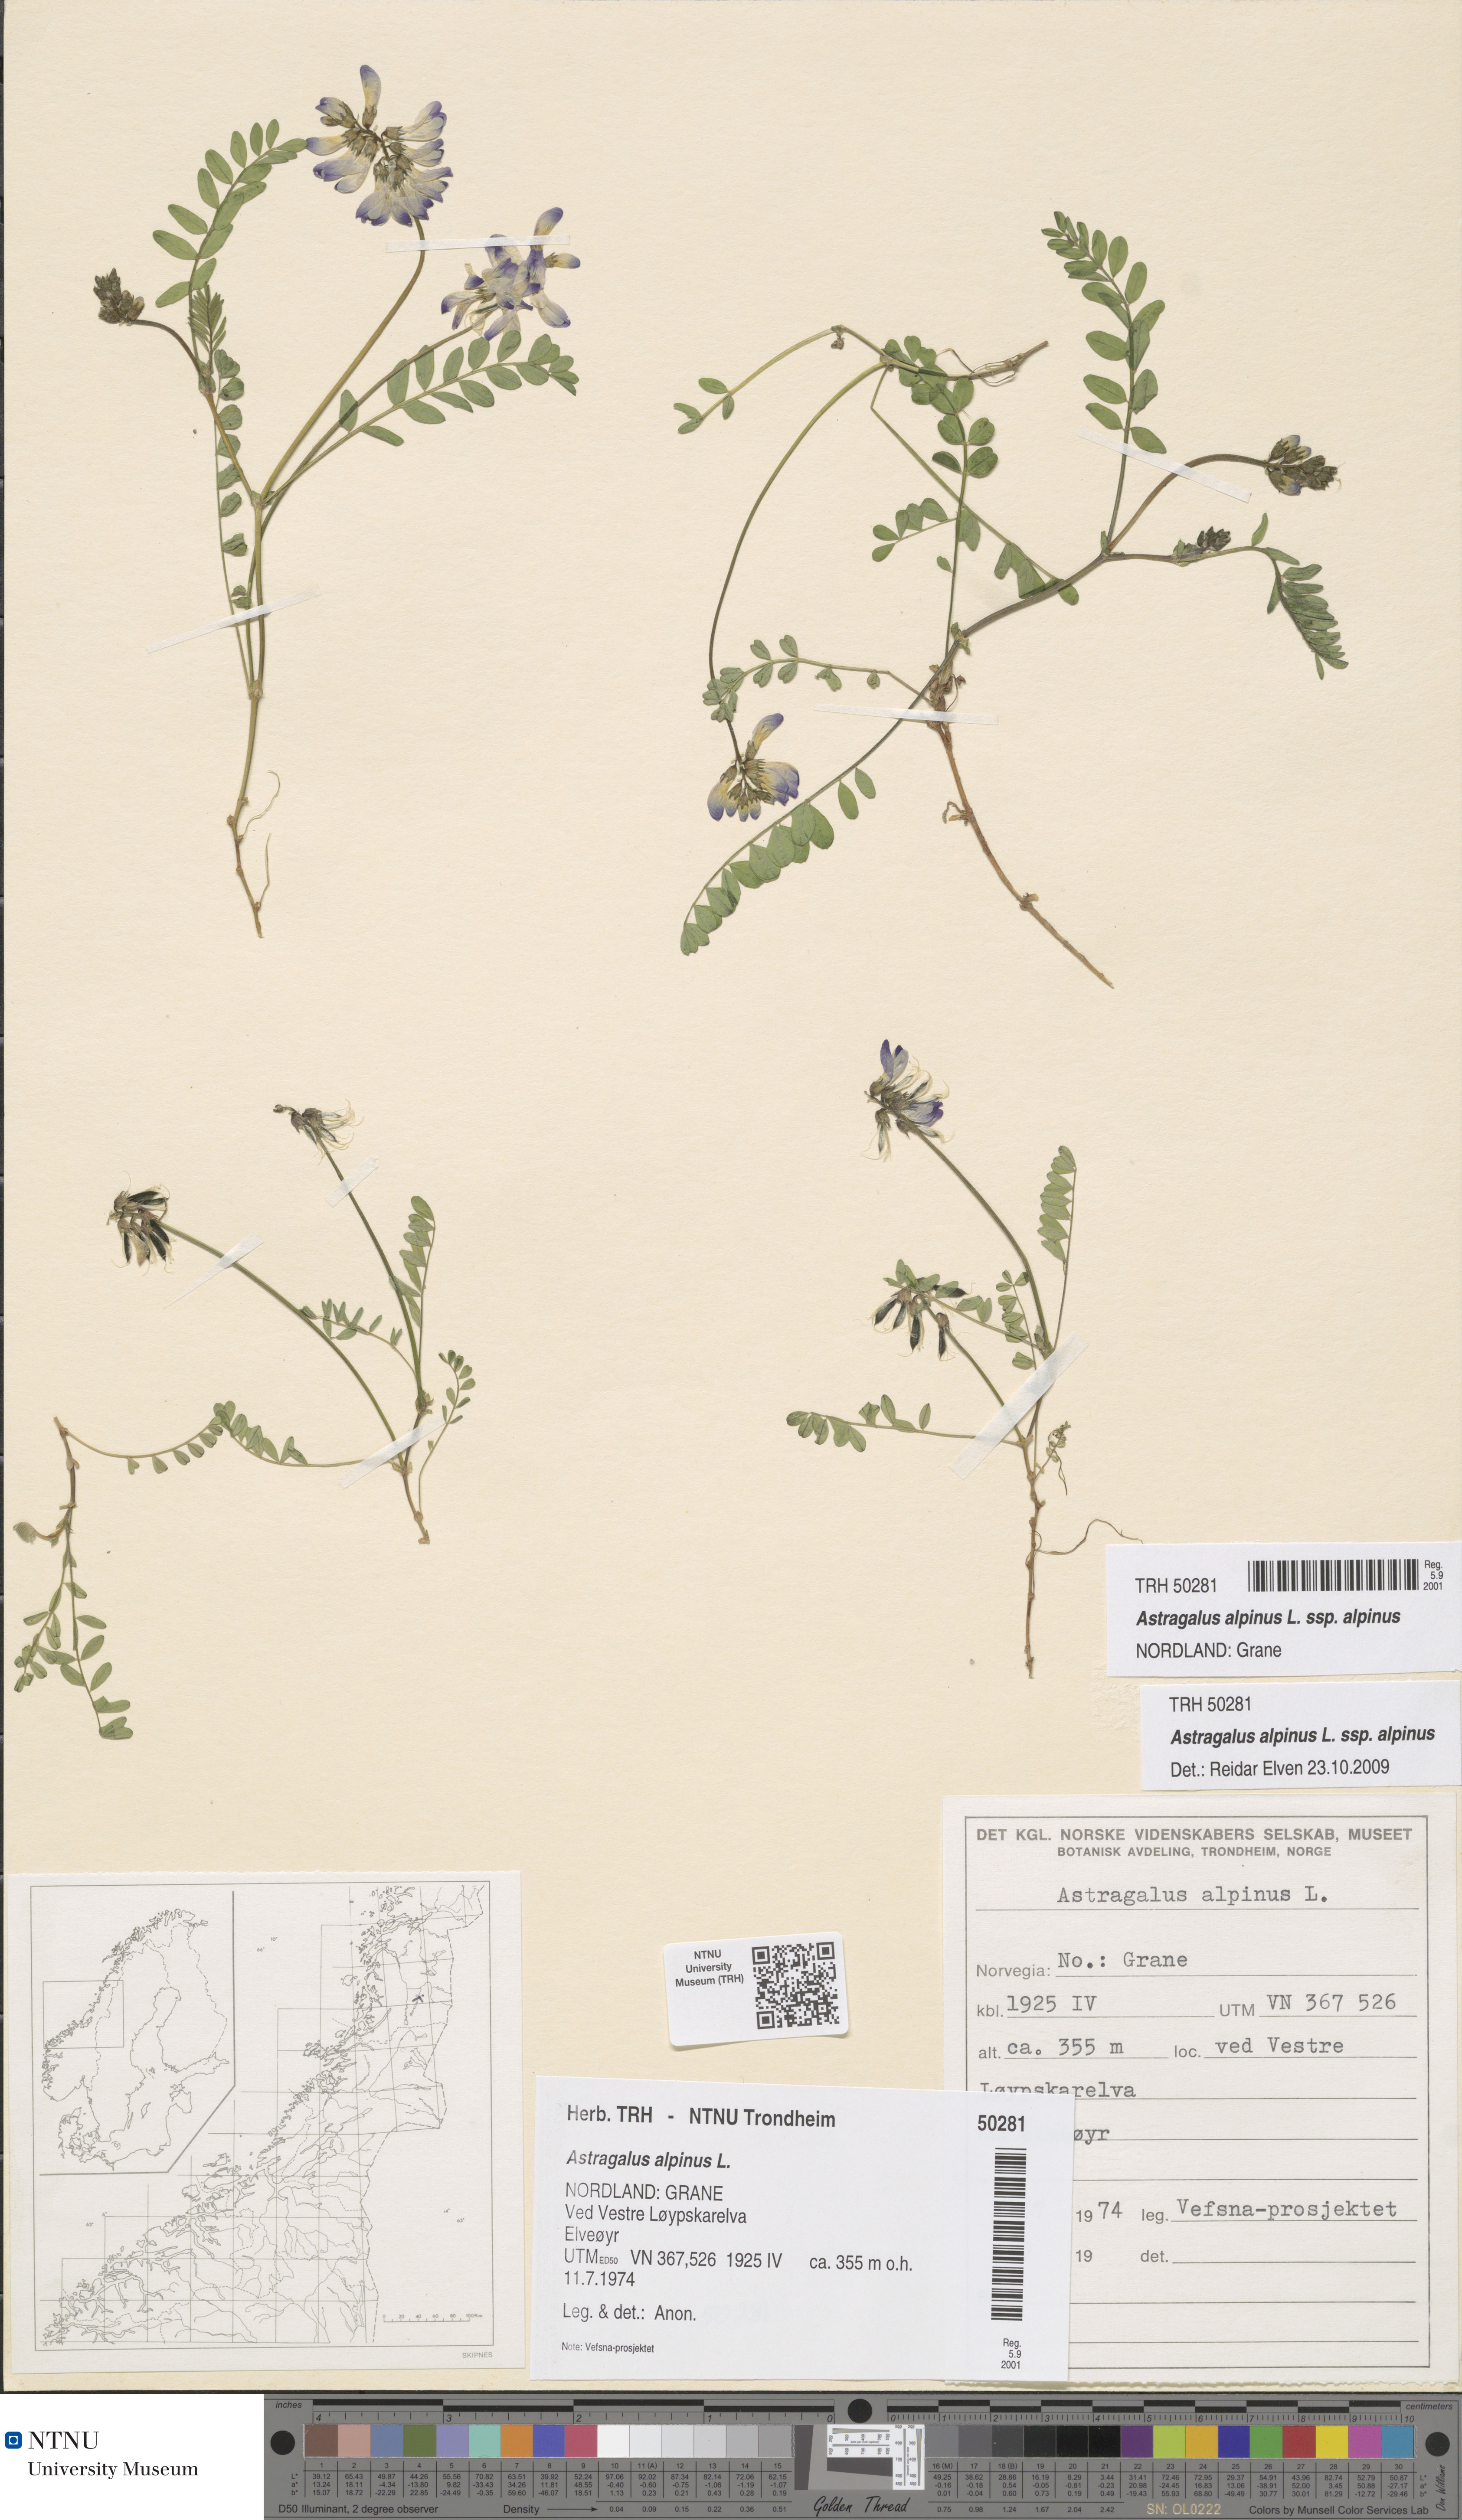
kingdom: Plantae
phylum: Tracheophyta
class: Magnoliopsida
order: Fabales
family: Fabaceae
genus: Astragalus
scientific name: Astragalus alpinus
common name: Alpine milk-vetch
